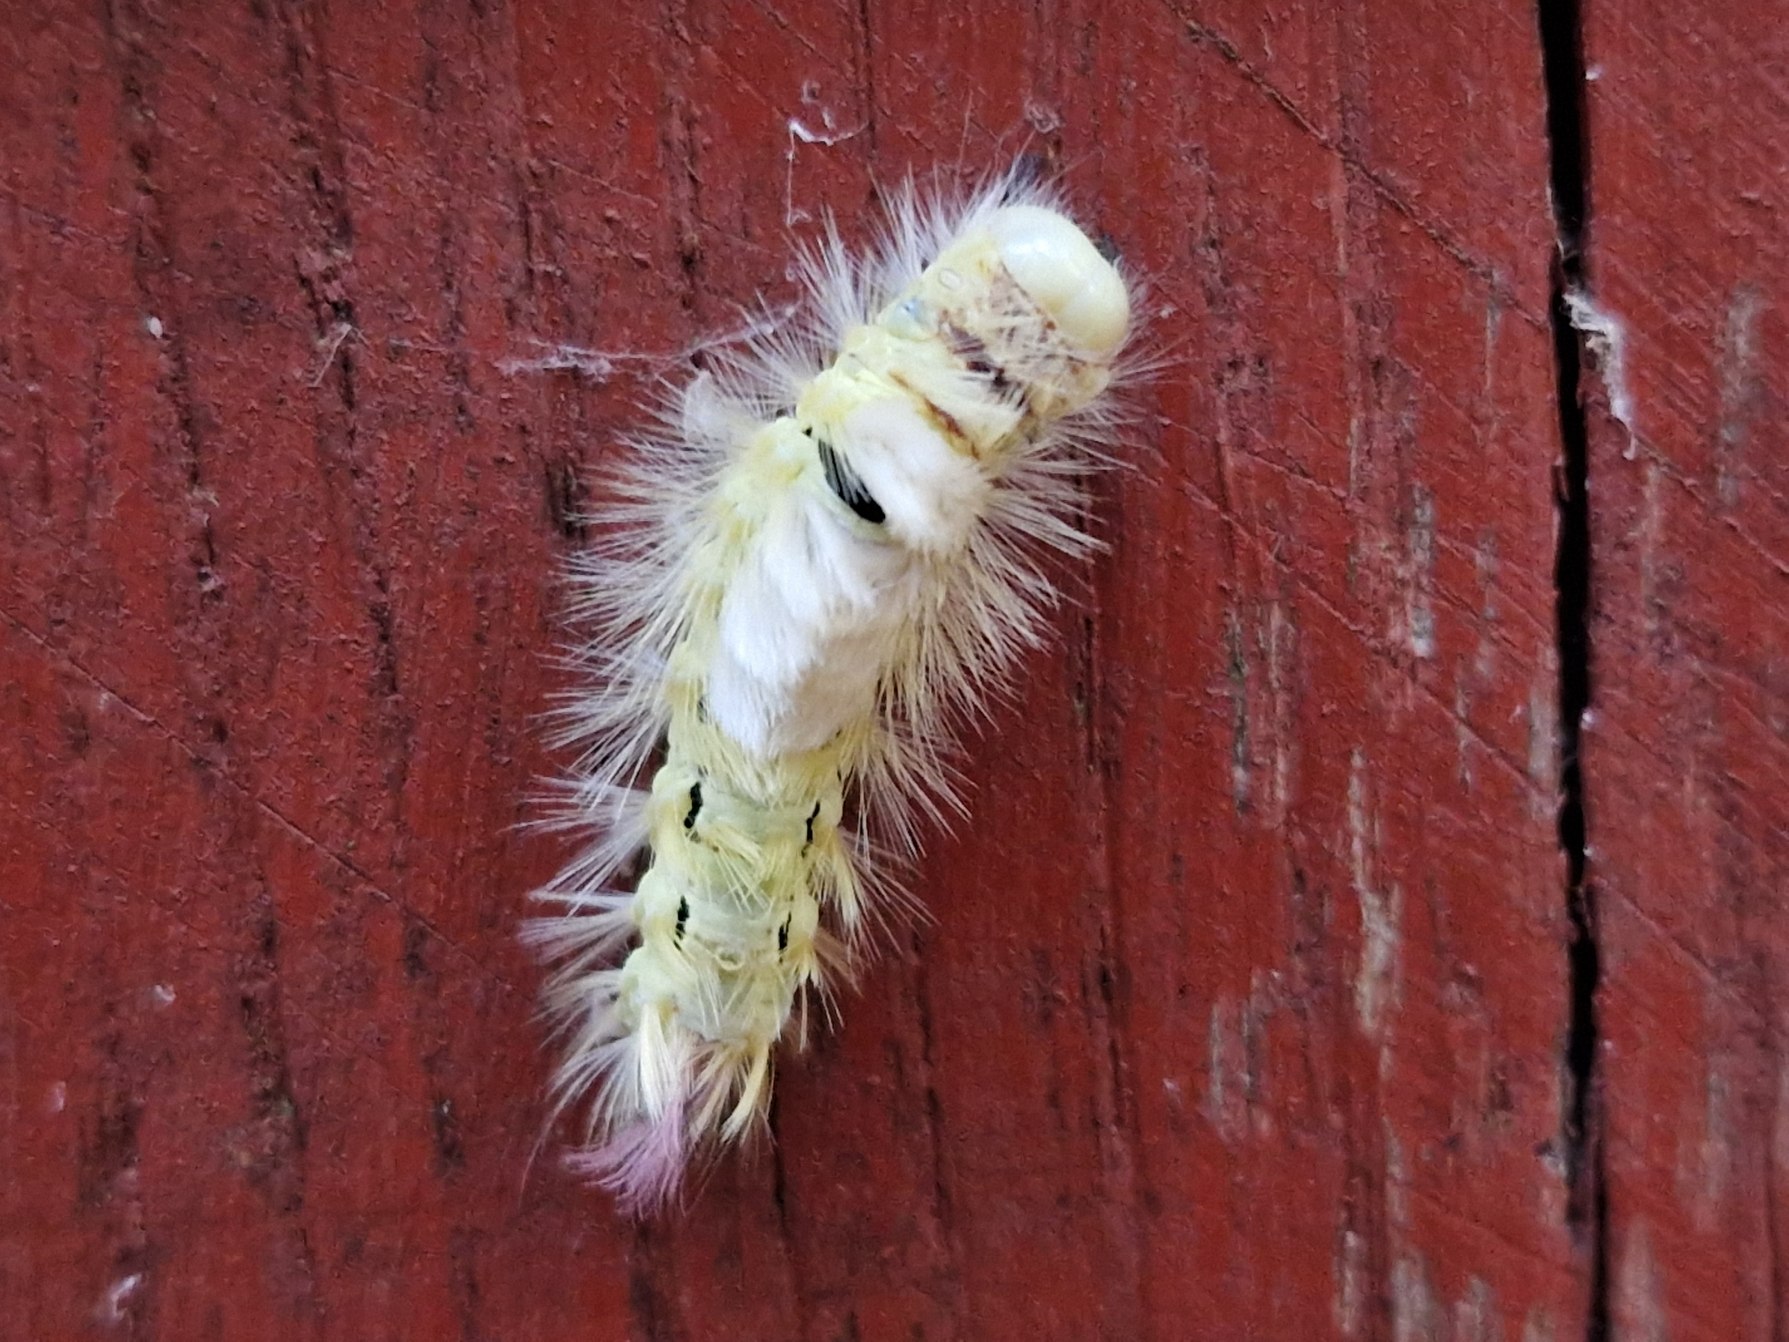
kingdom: Animalia
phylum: Arthropoda
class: Insecta
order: Lepidoptera
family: Erebidae
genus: Calliteara
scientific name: Calliteara pudibunda
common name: Bøgenonne
